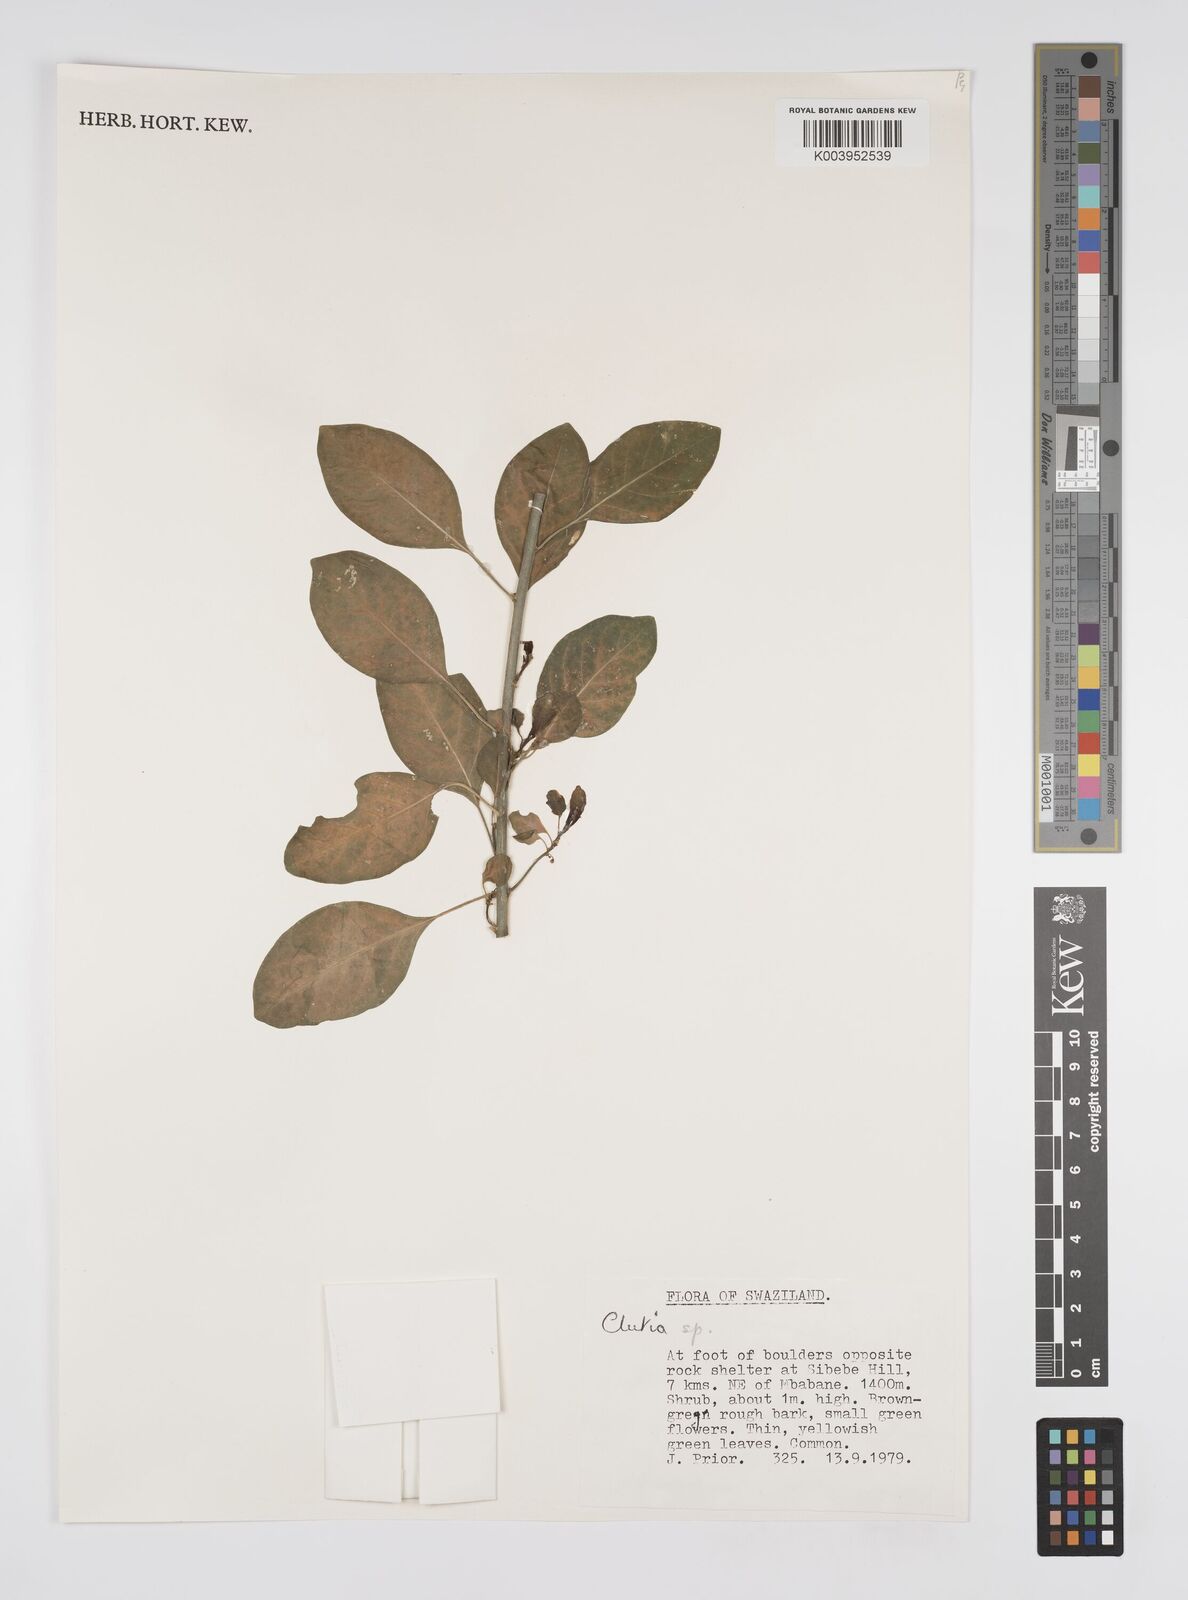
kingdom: Plantae
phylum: Tracheophyta
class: Magnoliopsida
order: Malpighiales
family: Peraceae
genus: Clutia
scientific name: Clutia
